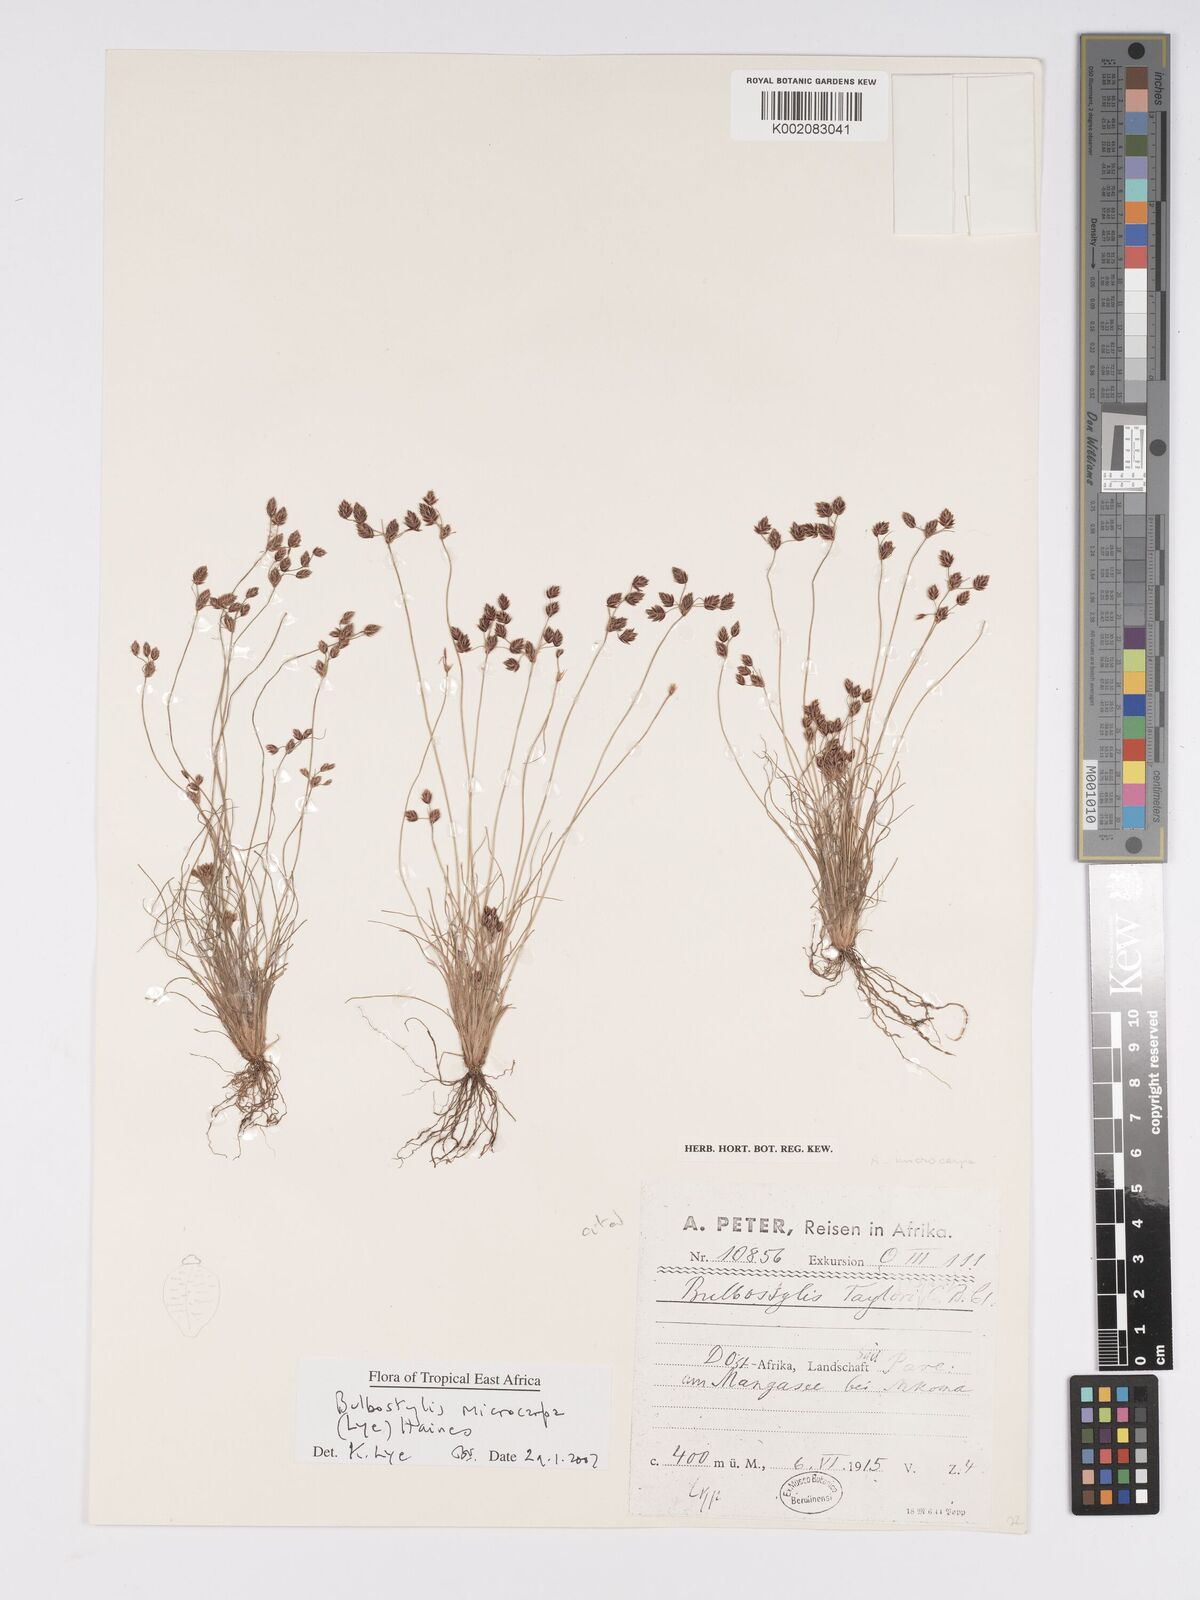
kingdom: Plantae
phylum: Tracheophyta
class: Liliopsida
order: Poales
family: Cyperaceae
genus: Bulbostylis
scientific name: Bulbostylis microcarpa
